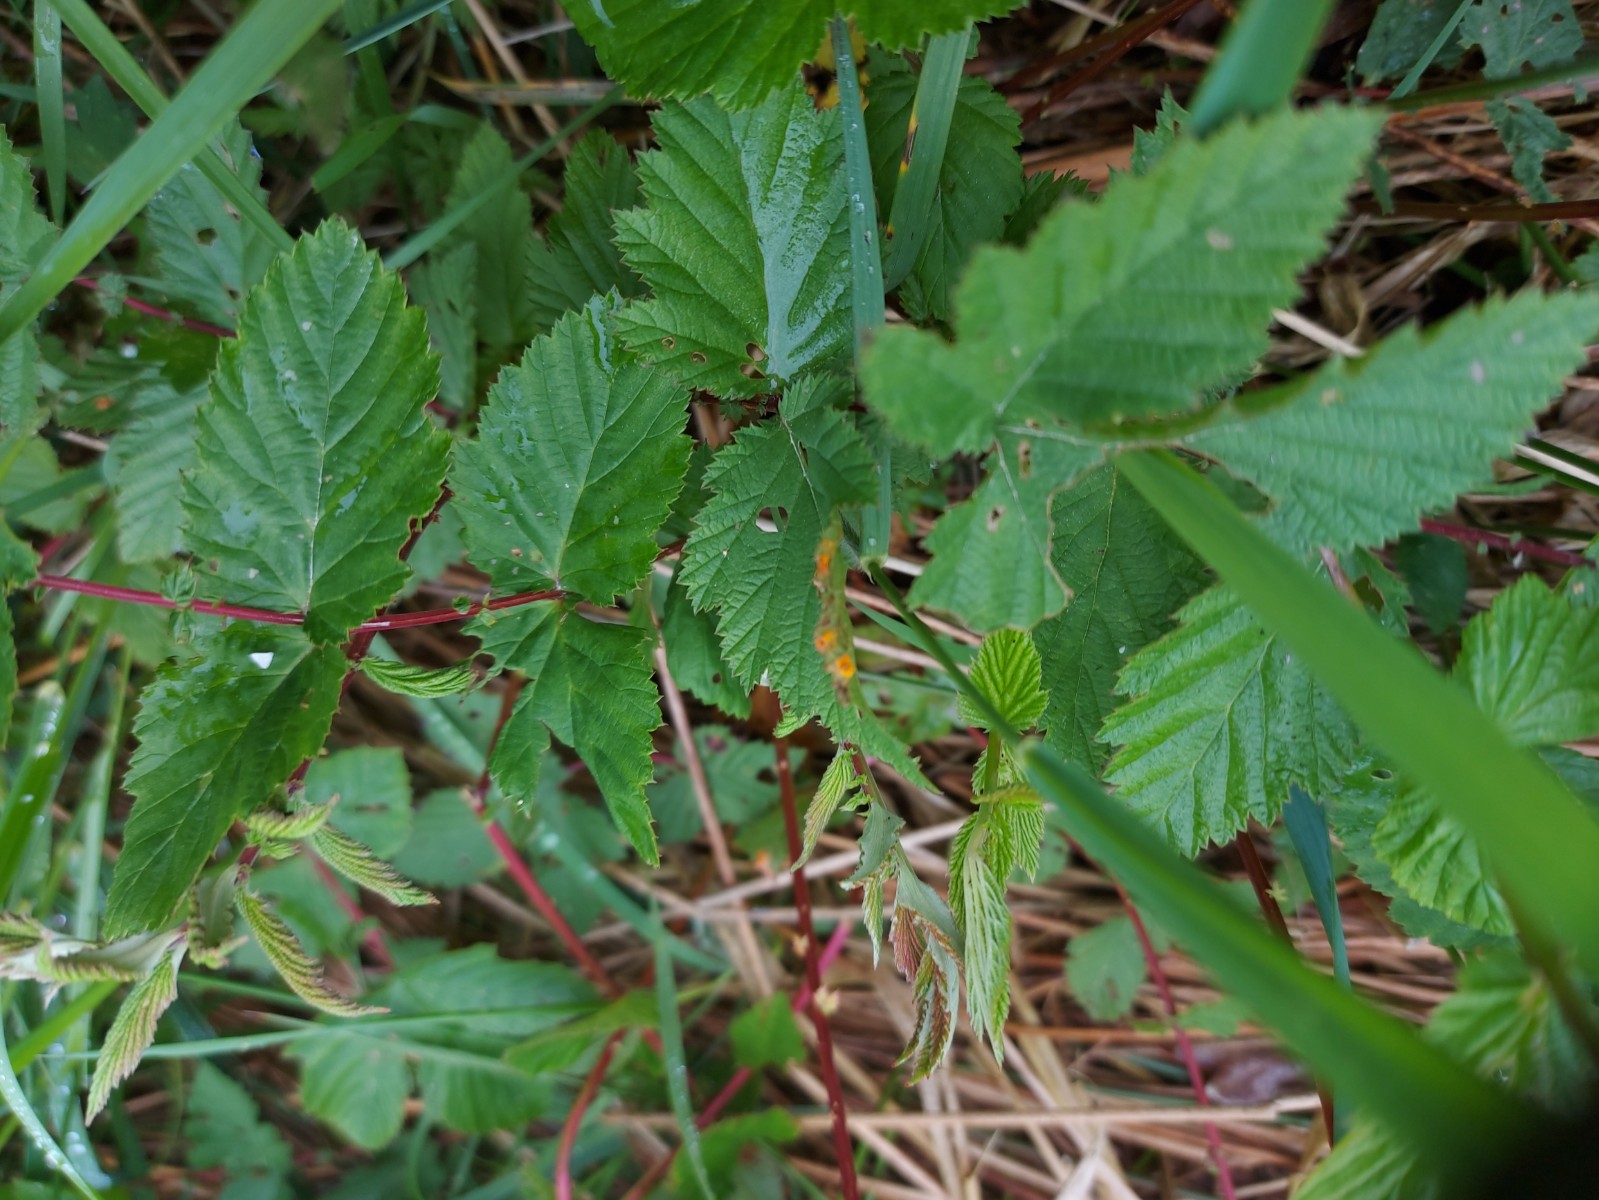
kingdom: Fungi
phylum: Basidiomycota
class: Pucciniomycetes
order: Pucciniales
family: Raveneliaceae
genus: Triphragmium
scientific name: Triphragmium ulmariae
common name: almindelig mjødurtrust
